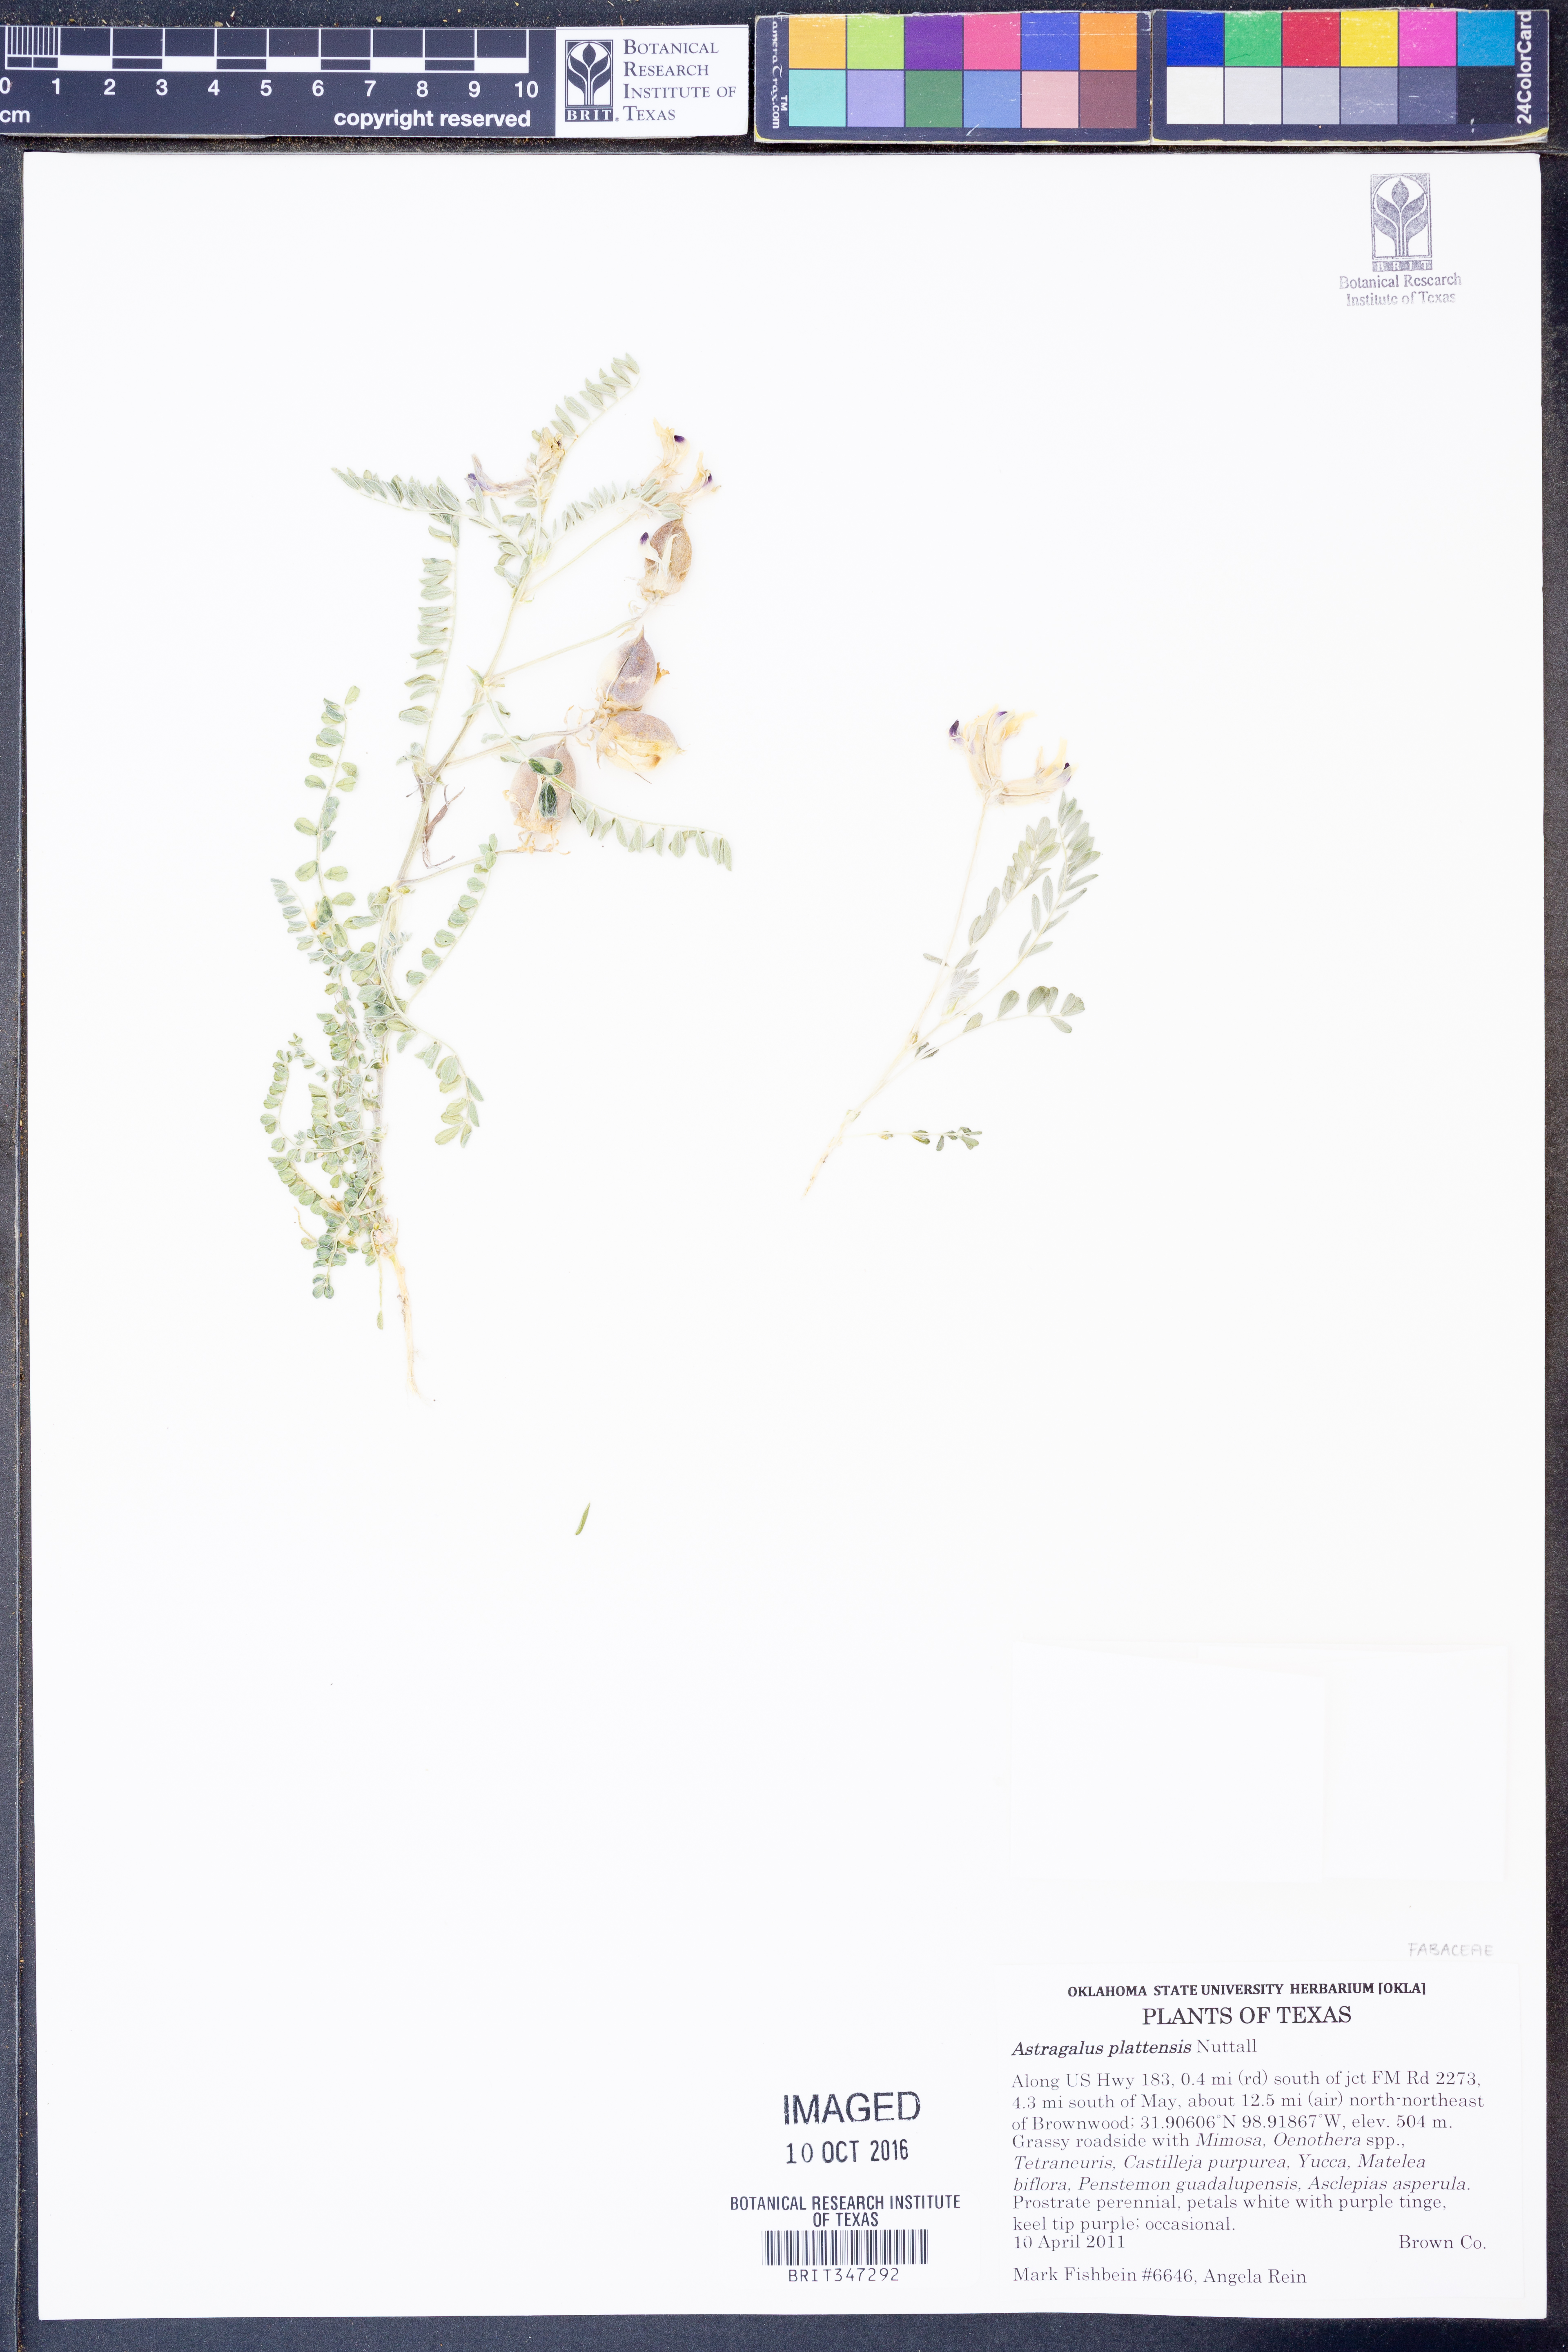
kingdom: Plantae
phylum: Tracheophyta
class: Magnoliopsida
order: Fabales
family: Fabaceae
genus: Astragalus
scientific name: Astragalus plattensis
